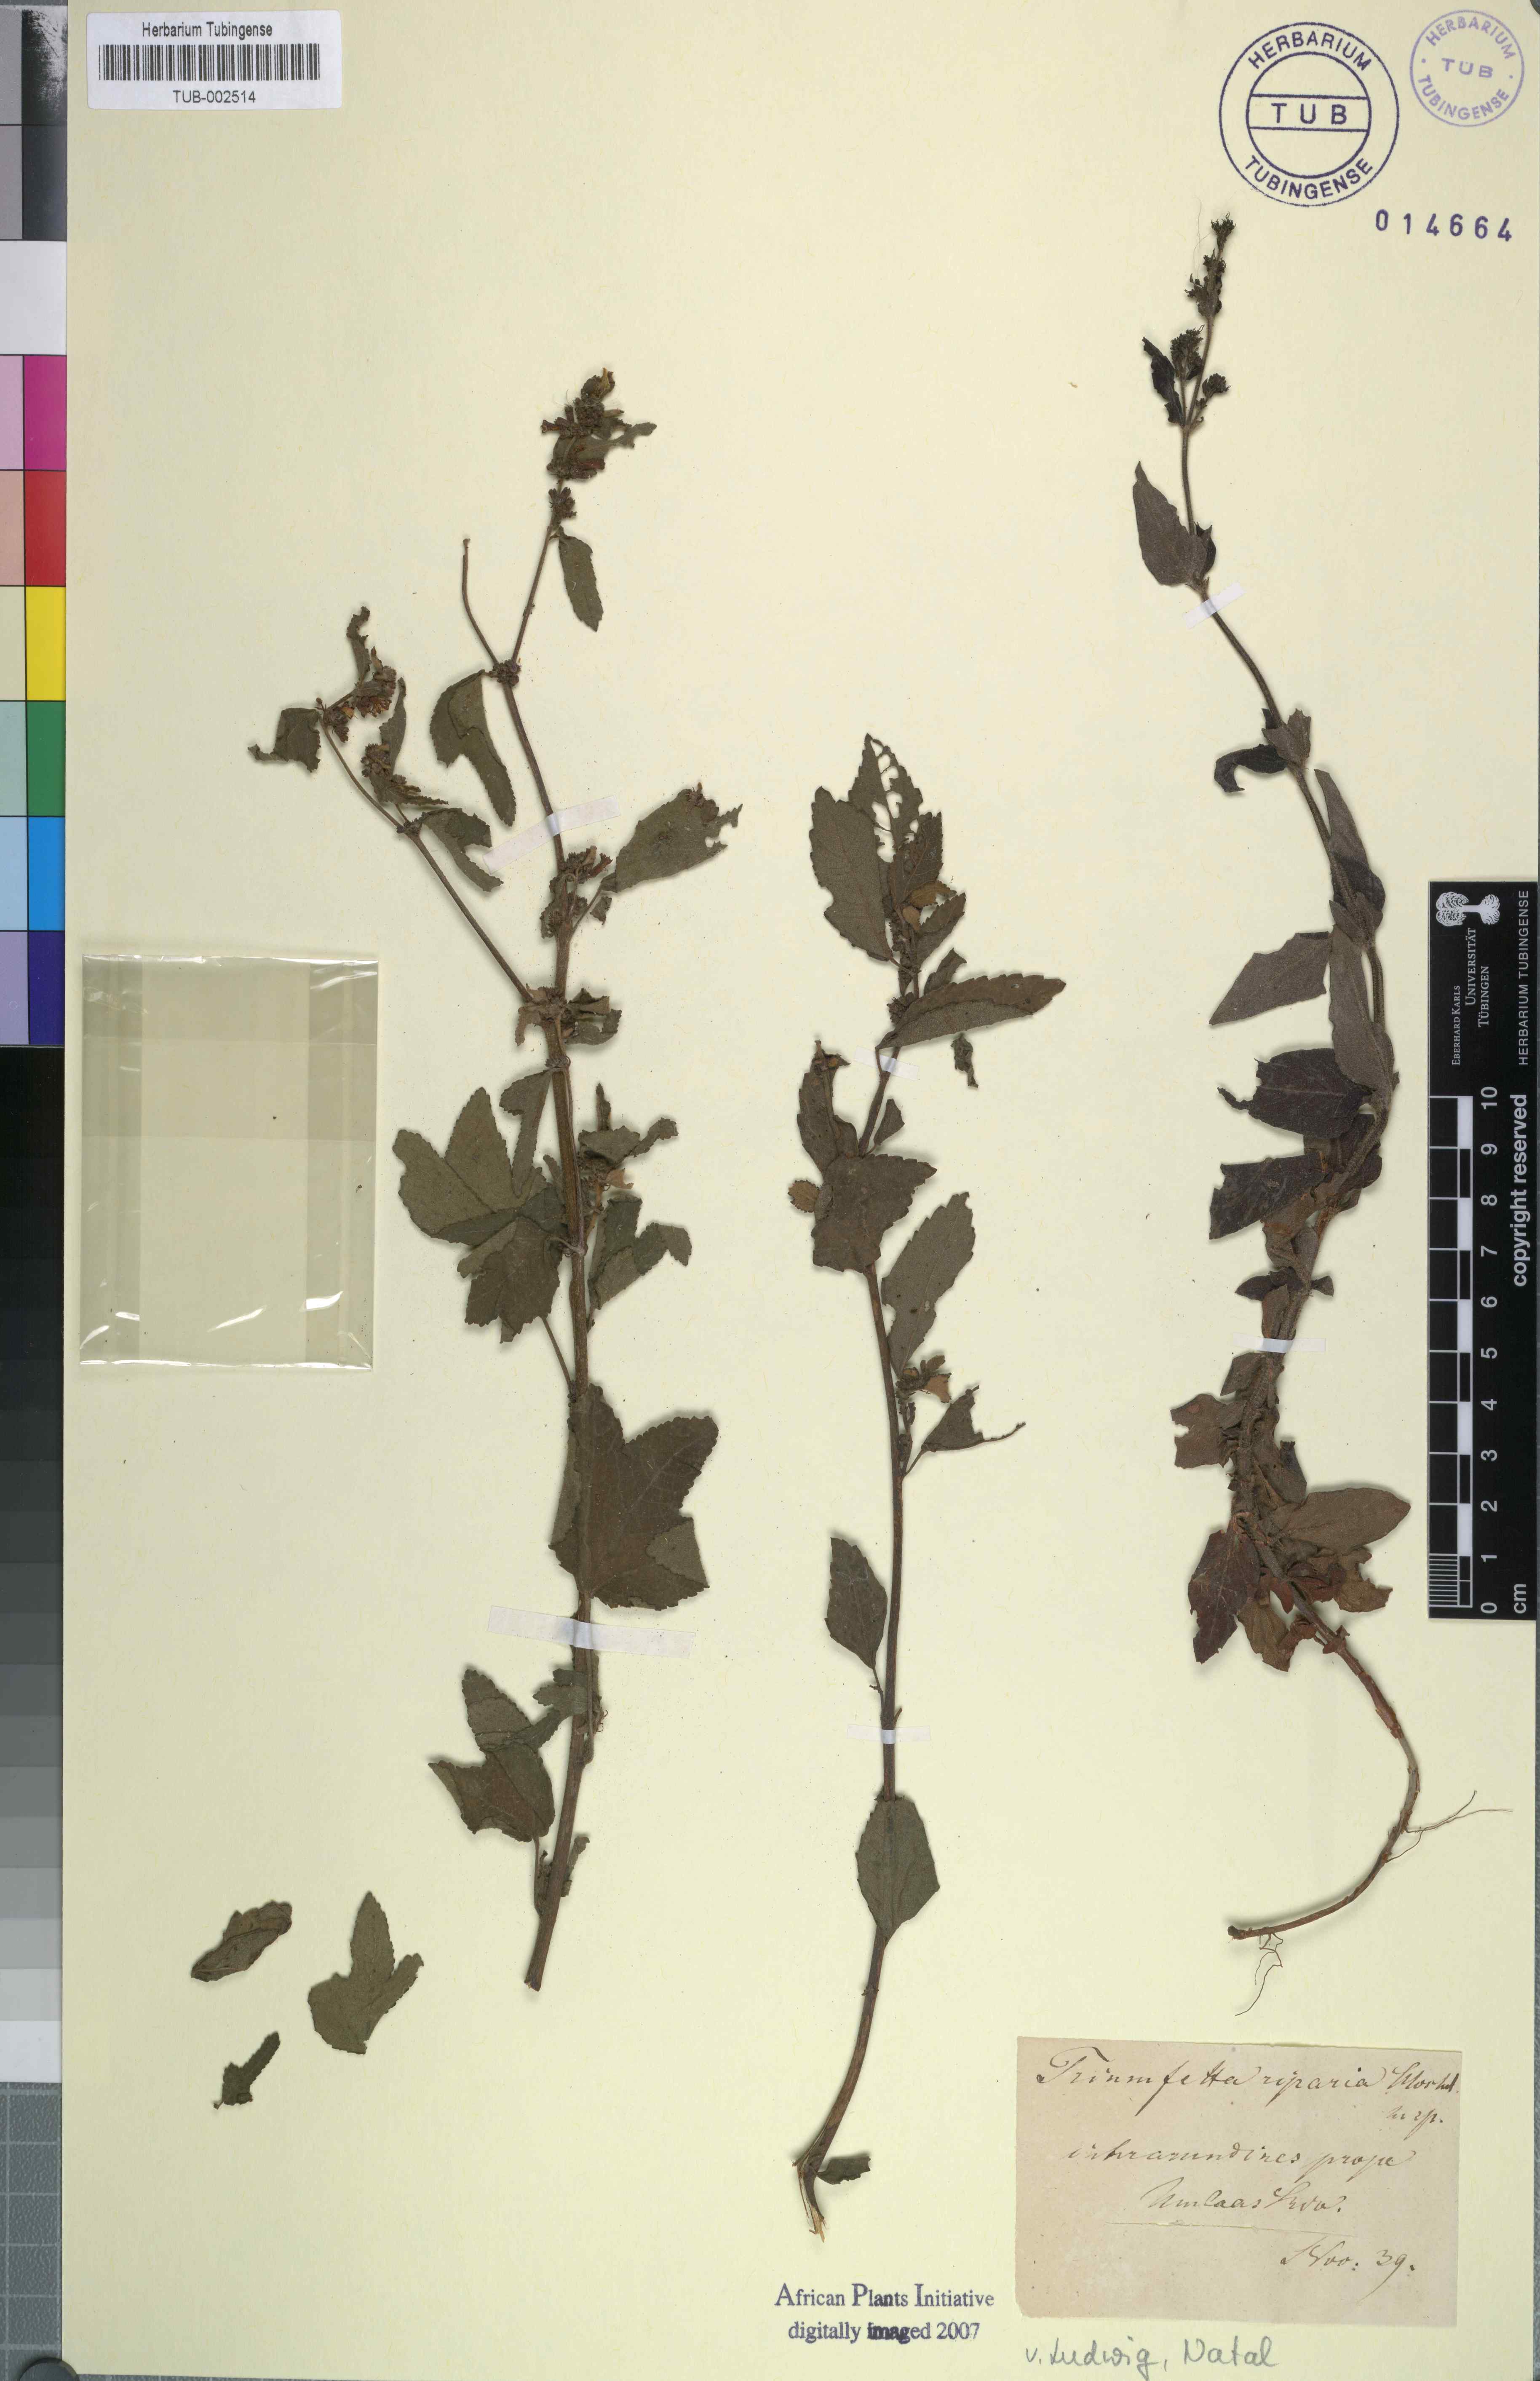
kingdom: Plantae
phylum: Tracheophyta
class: Magnoliopsida
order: Malvales
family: Malvaceae
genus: Triumfetta
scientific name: Triumfetta rhomboidea
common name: Diamond burbark
